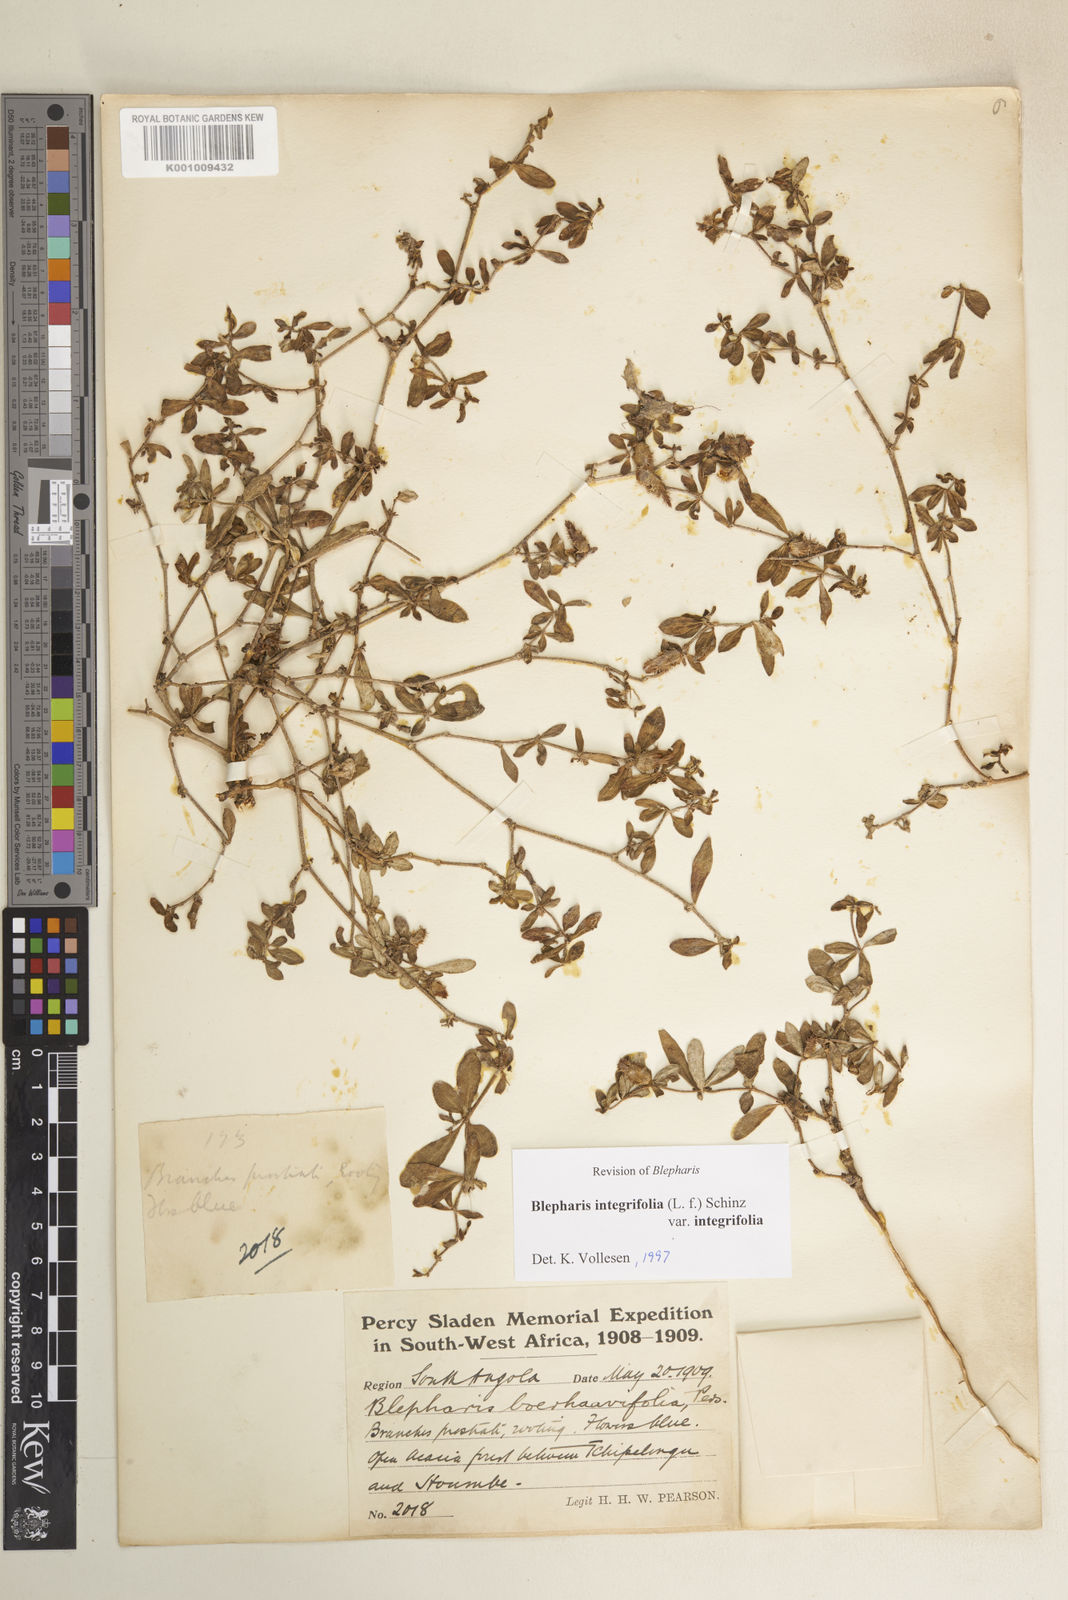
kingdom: Plantae
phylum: Tracheophyta
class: Magnoliopsida
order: Lamiales
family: Acanthaceae
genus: Blepharis
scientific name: Blepharis
